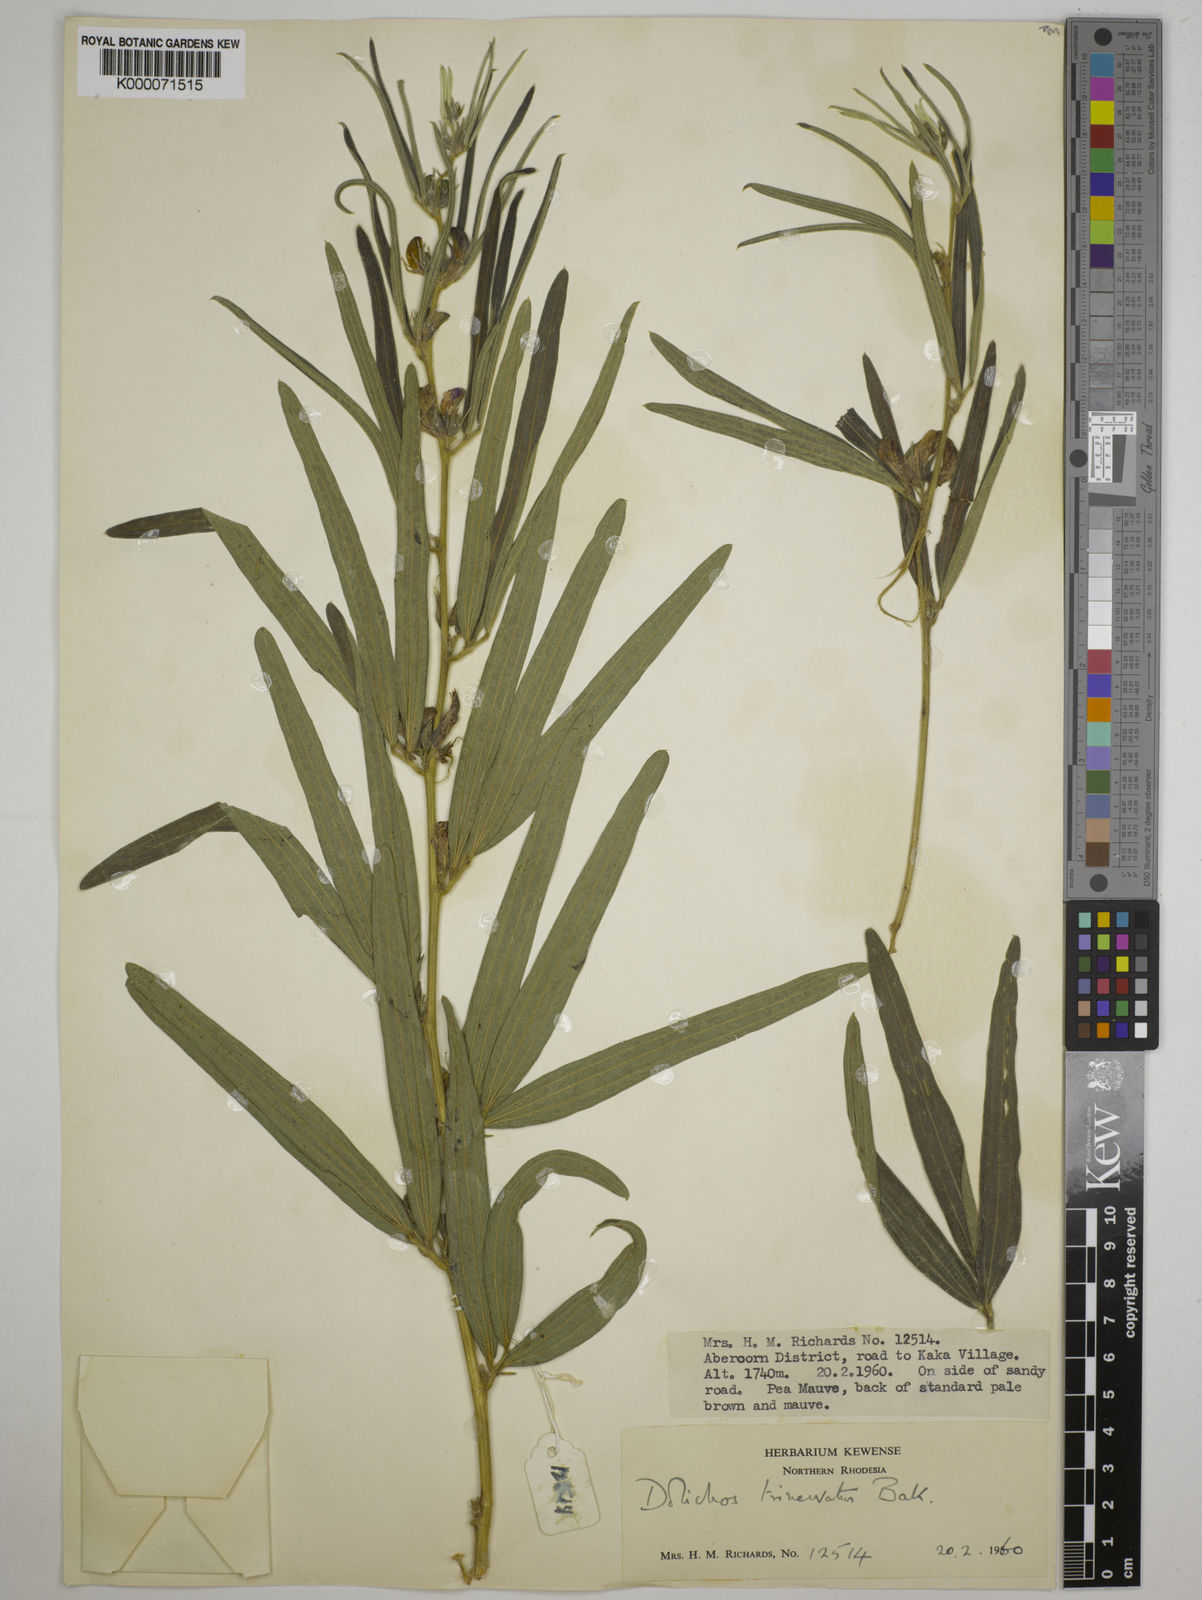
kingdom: Plantae
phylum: Tracheophyta
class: Magnoliopsida
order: Fabales
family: Fabaceae
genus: Dolichos
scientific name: Dolichos trinervatus
